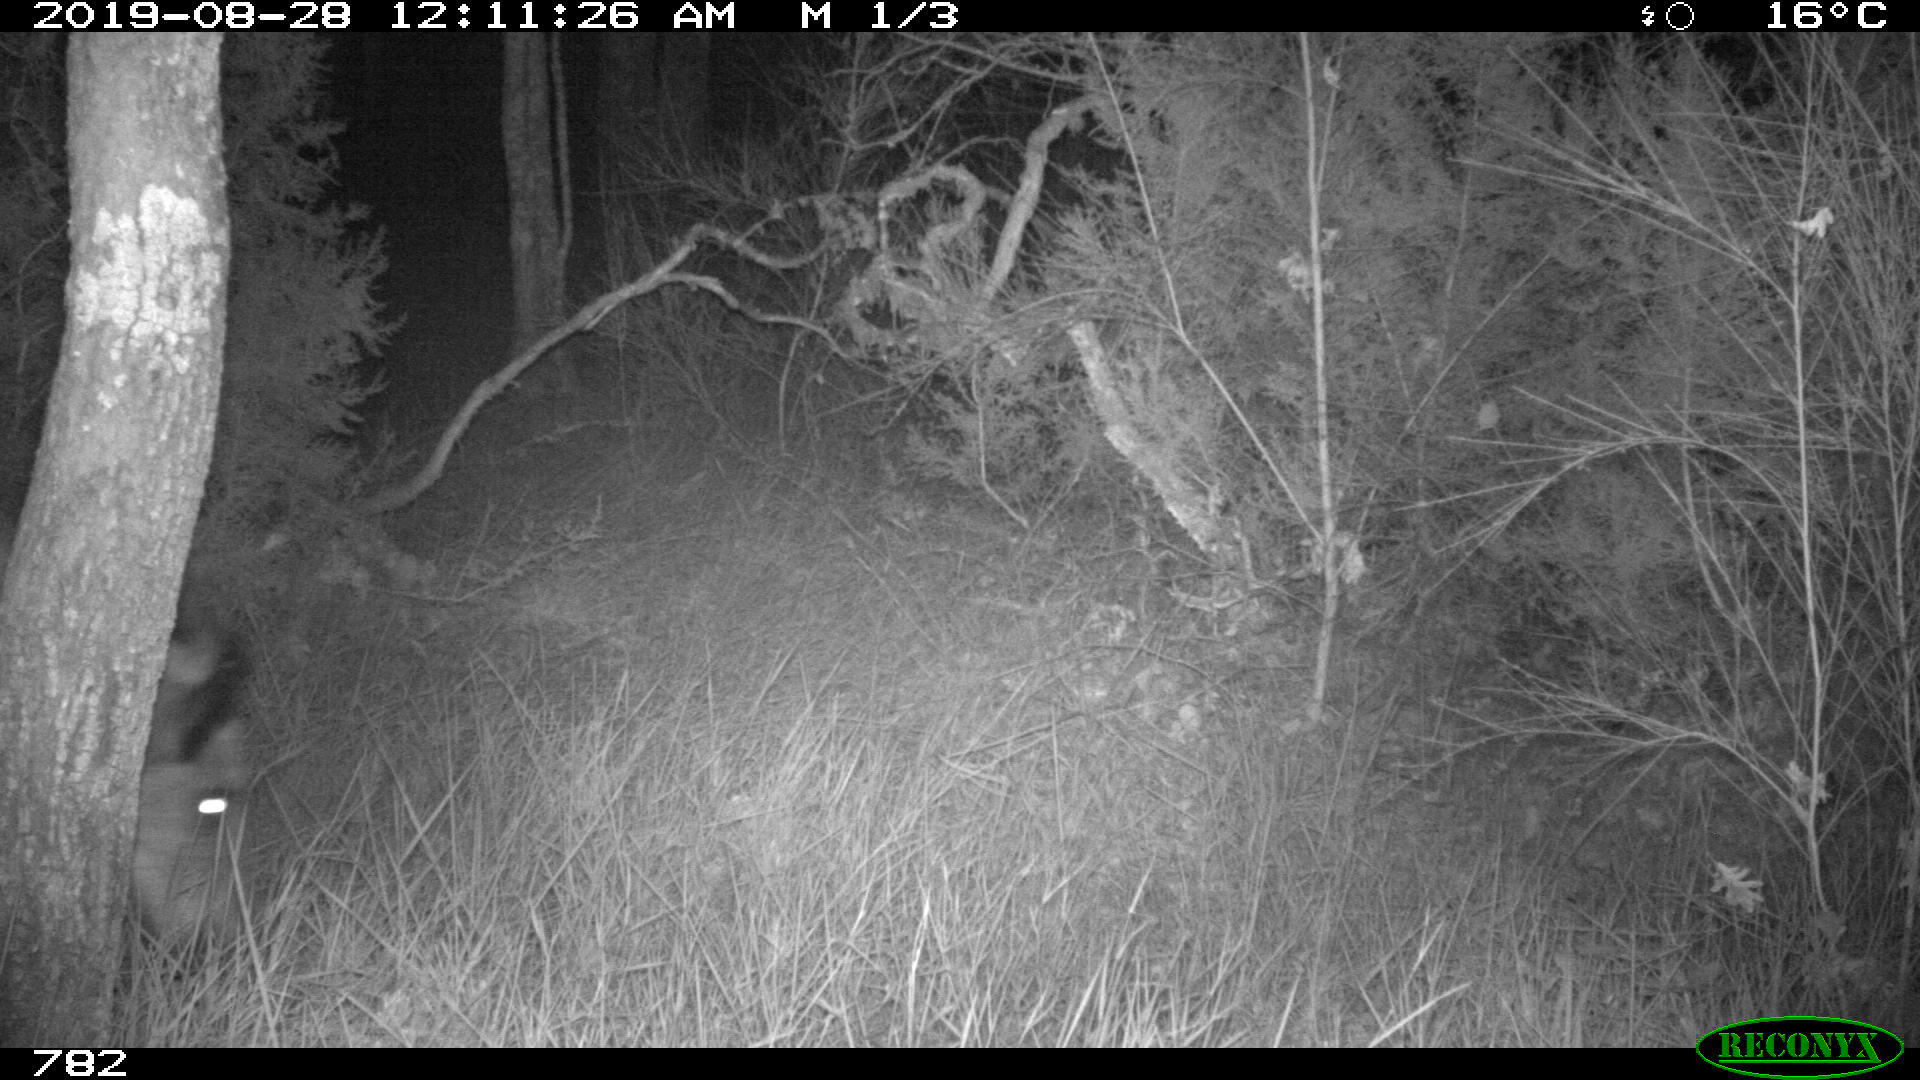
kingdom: Animalia
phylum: Chordata
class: Mammalia
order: Artiodactyla
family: Suidae
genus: Sus
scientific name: Sus scrofa
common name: Wild boar
